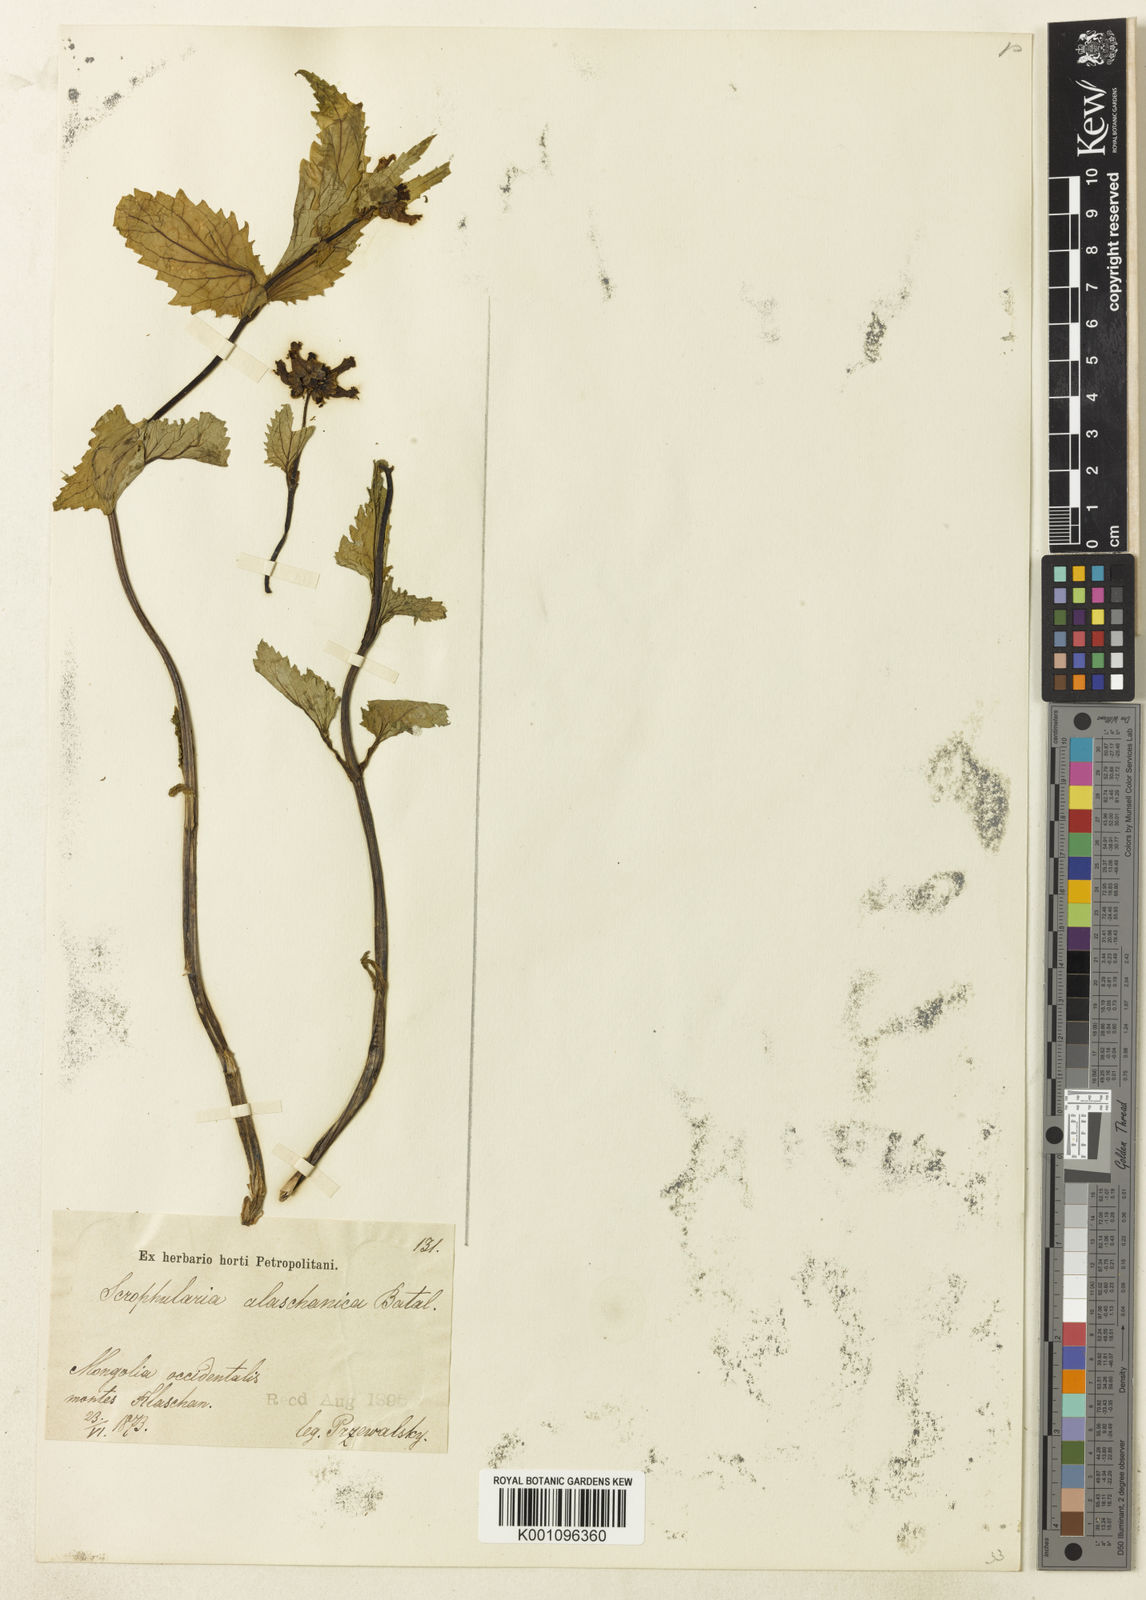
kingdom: Plantae
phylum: Tracheophyta
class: Magnoliopsida
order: Lamiales
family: Scrophulariaceae
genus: Scrophularia
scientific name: Scrophularia alaschanica
